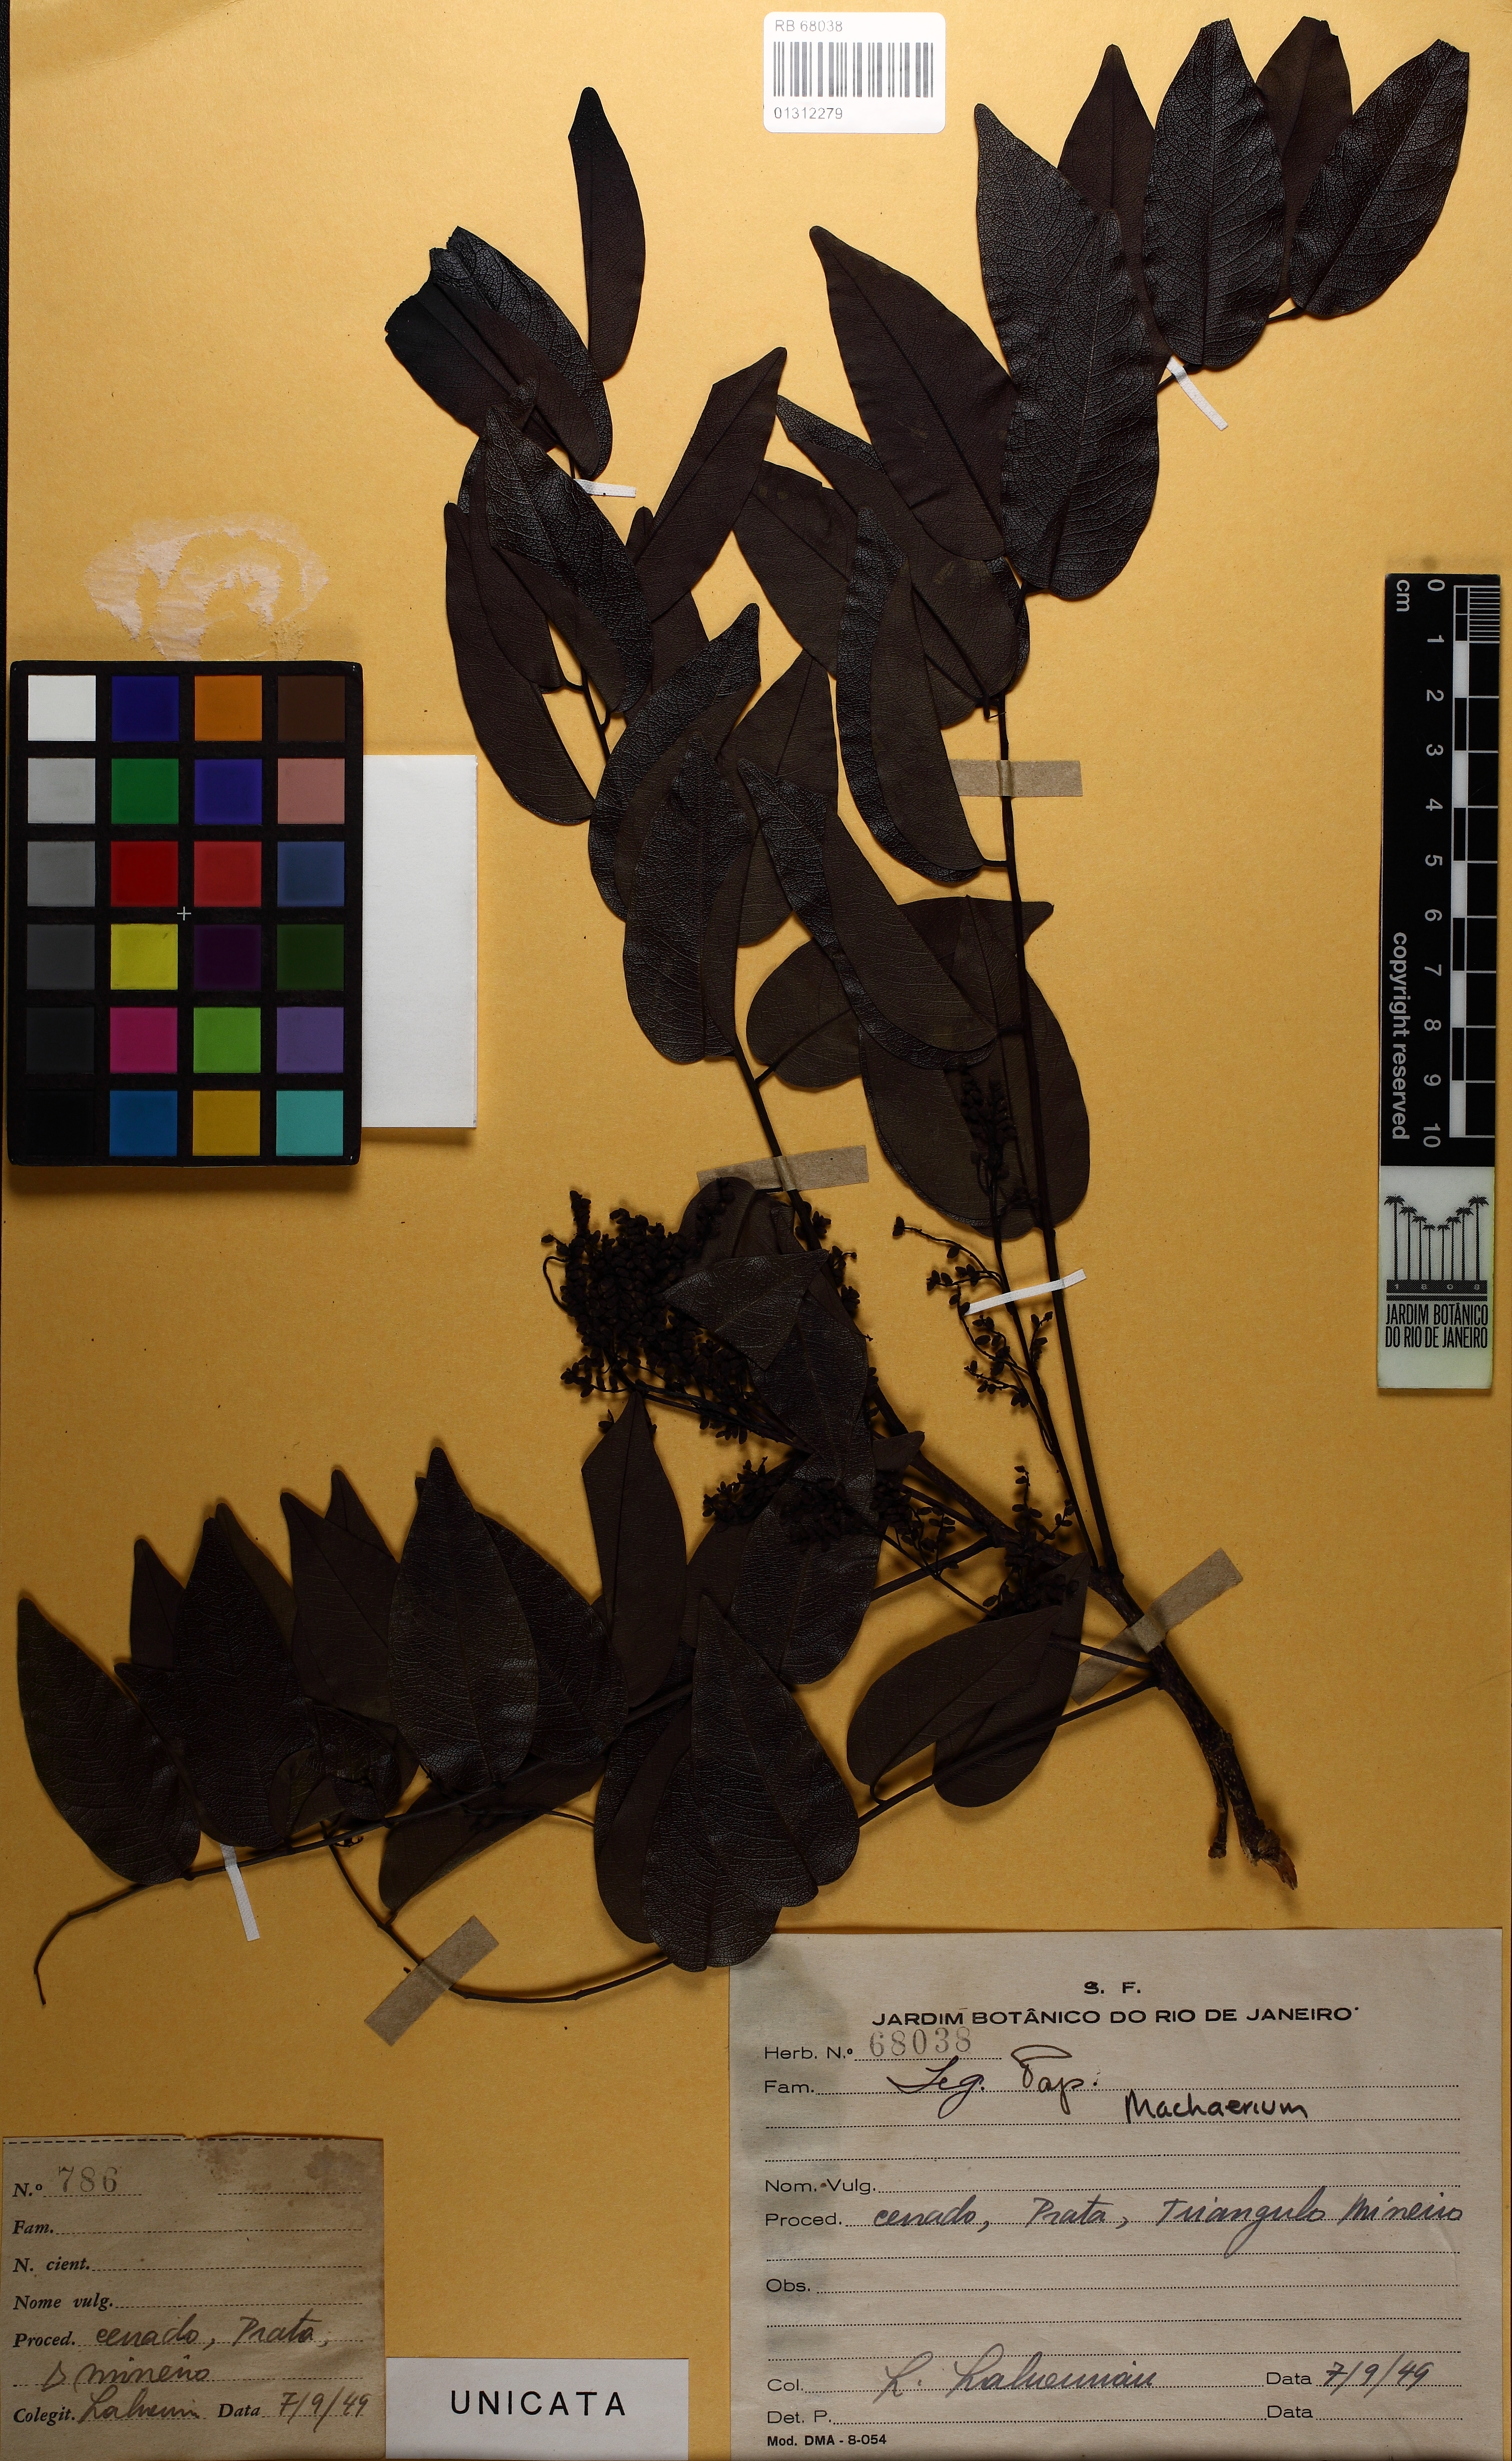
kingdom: Plantae
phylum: Tracheophyta
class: Magnoliopsida
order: Fabales
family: Fabaceae
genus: Machaerium
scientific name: Machaerium acutifolium
